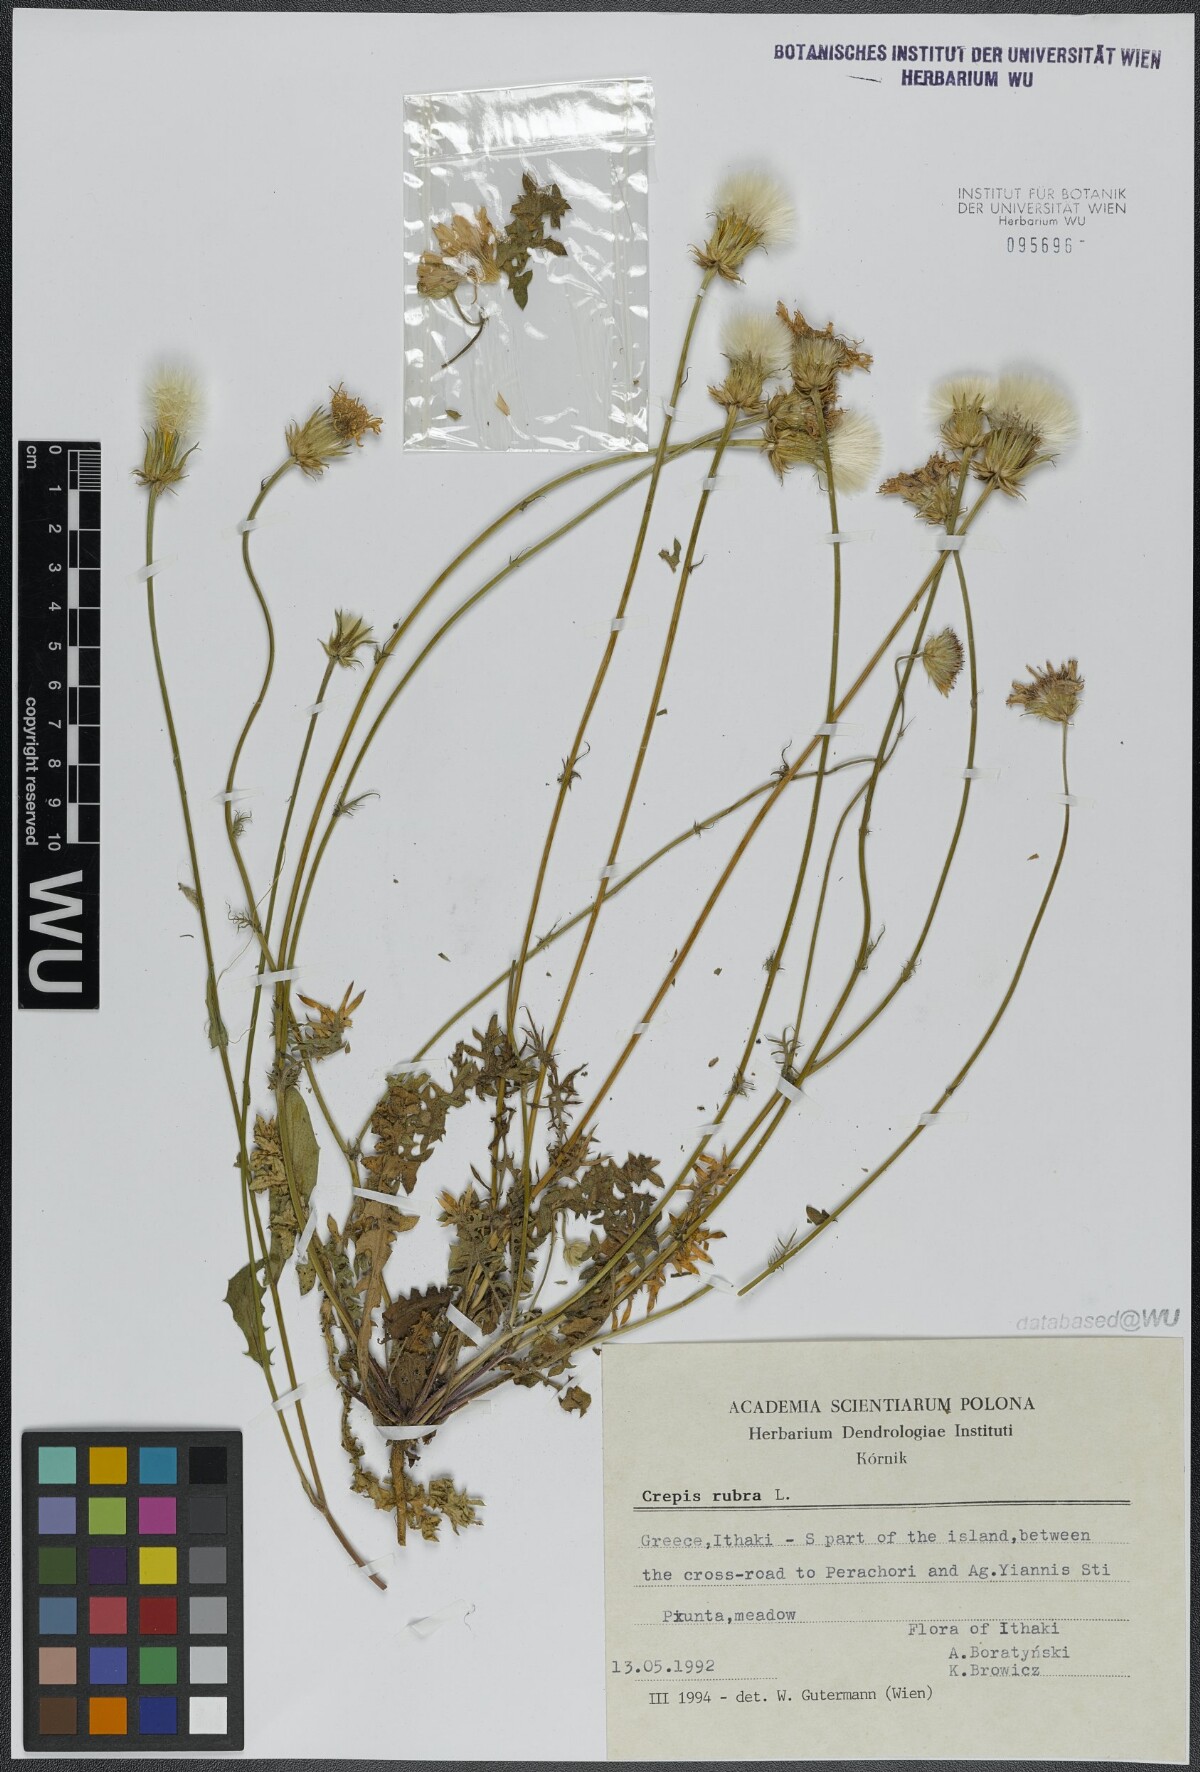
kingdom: Plantae
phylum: Tracheophyta
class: Magnoliopsida
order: Asterales
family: Asteraceae
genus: Crepis
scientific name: Crepis rubra
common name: Pink hawk's-beard
